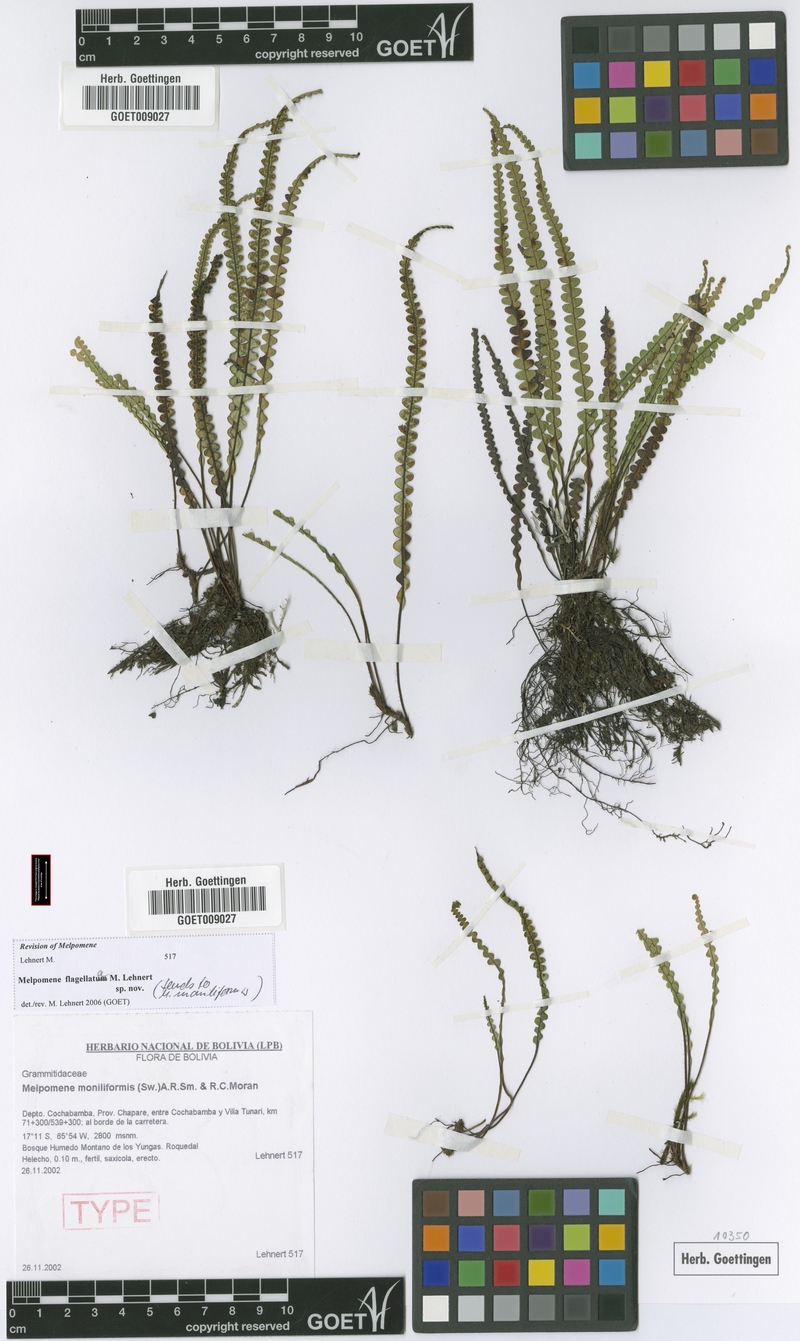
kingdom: Plantae
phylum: Tracheophyta
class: Polypodiopsida
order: Polypodiales
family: Polypodiaceae
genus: Melpomene
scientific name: Melpomene flagellata
